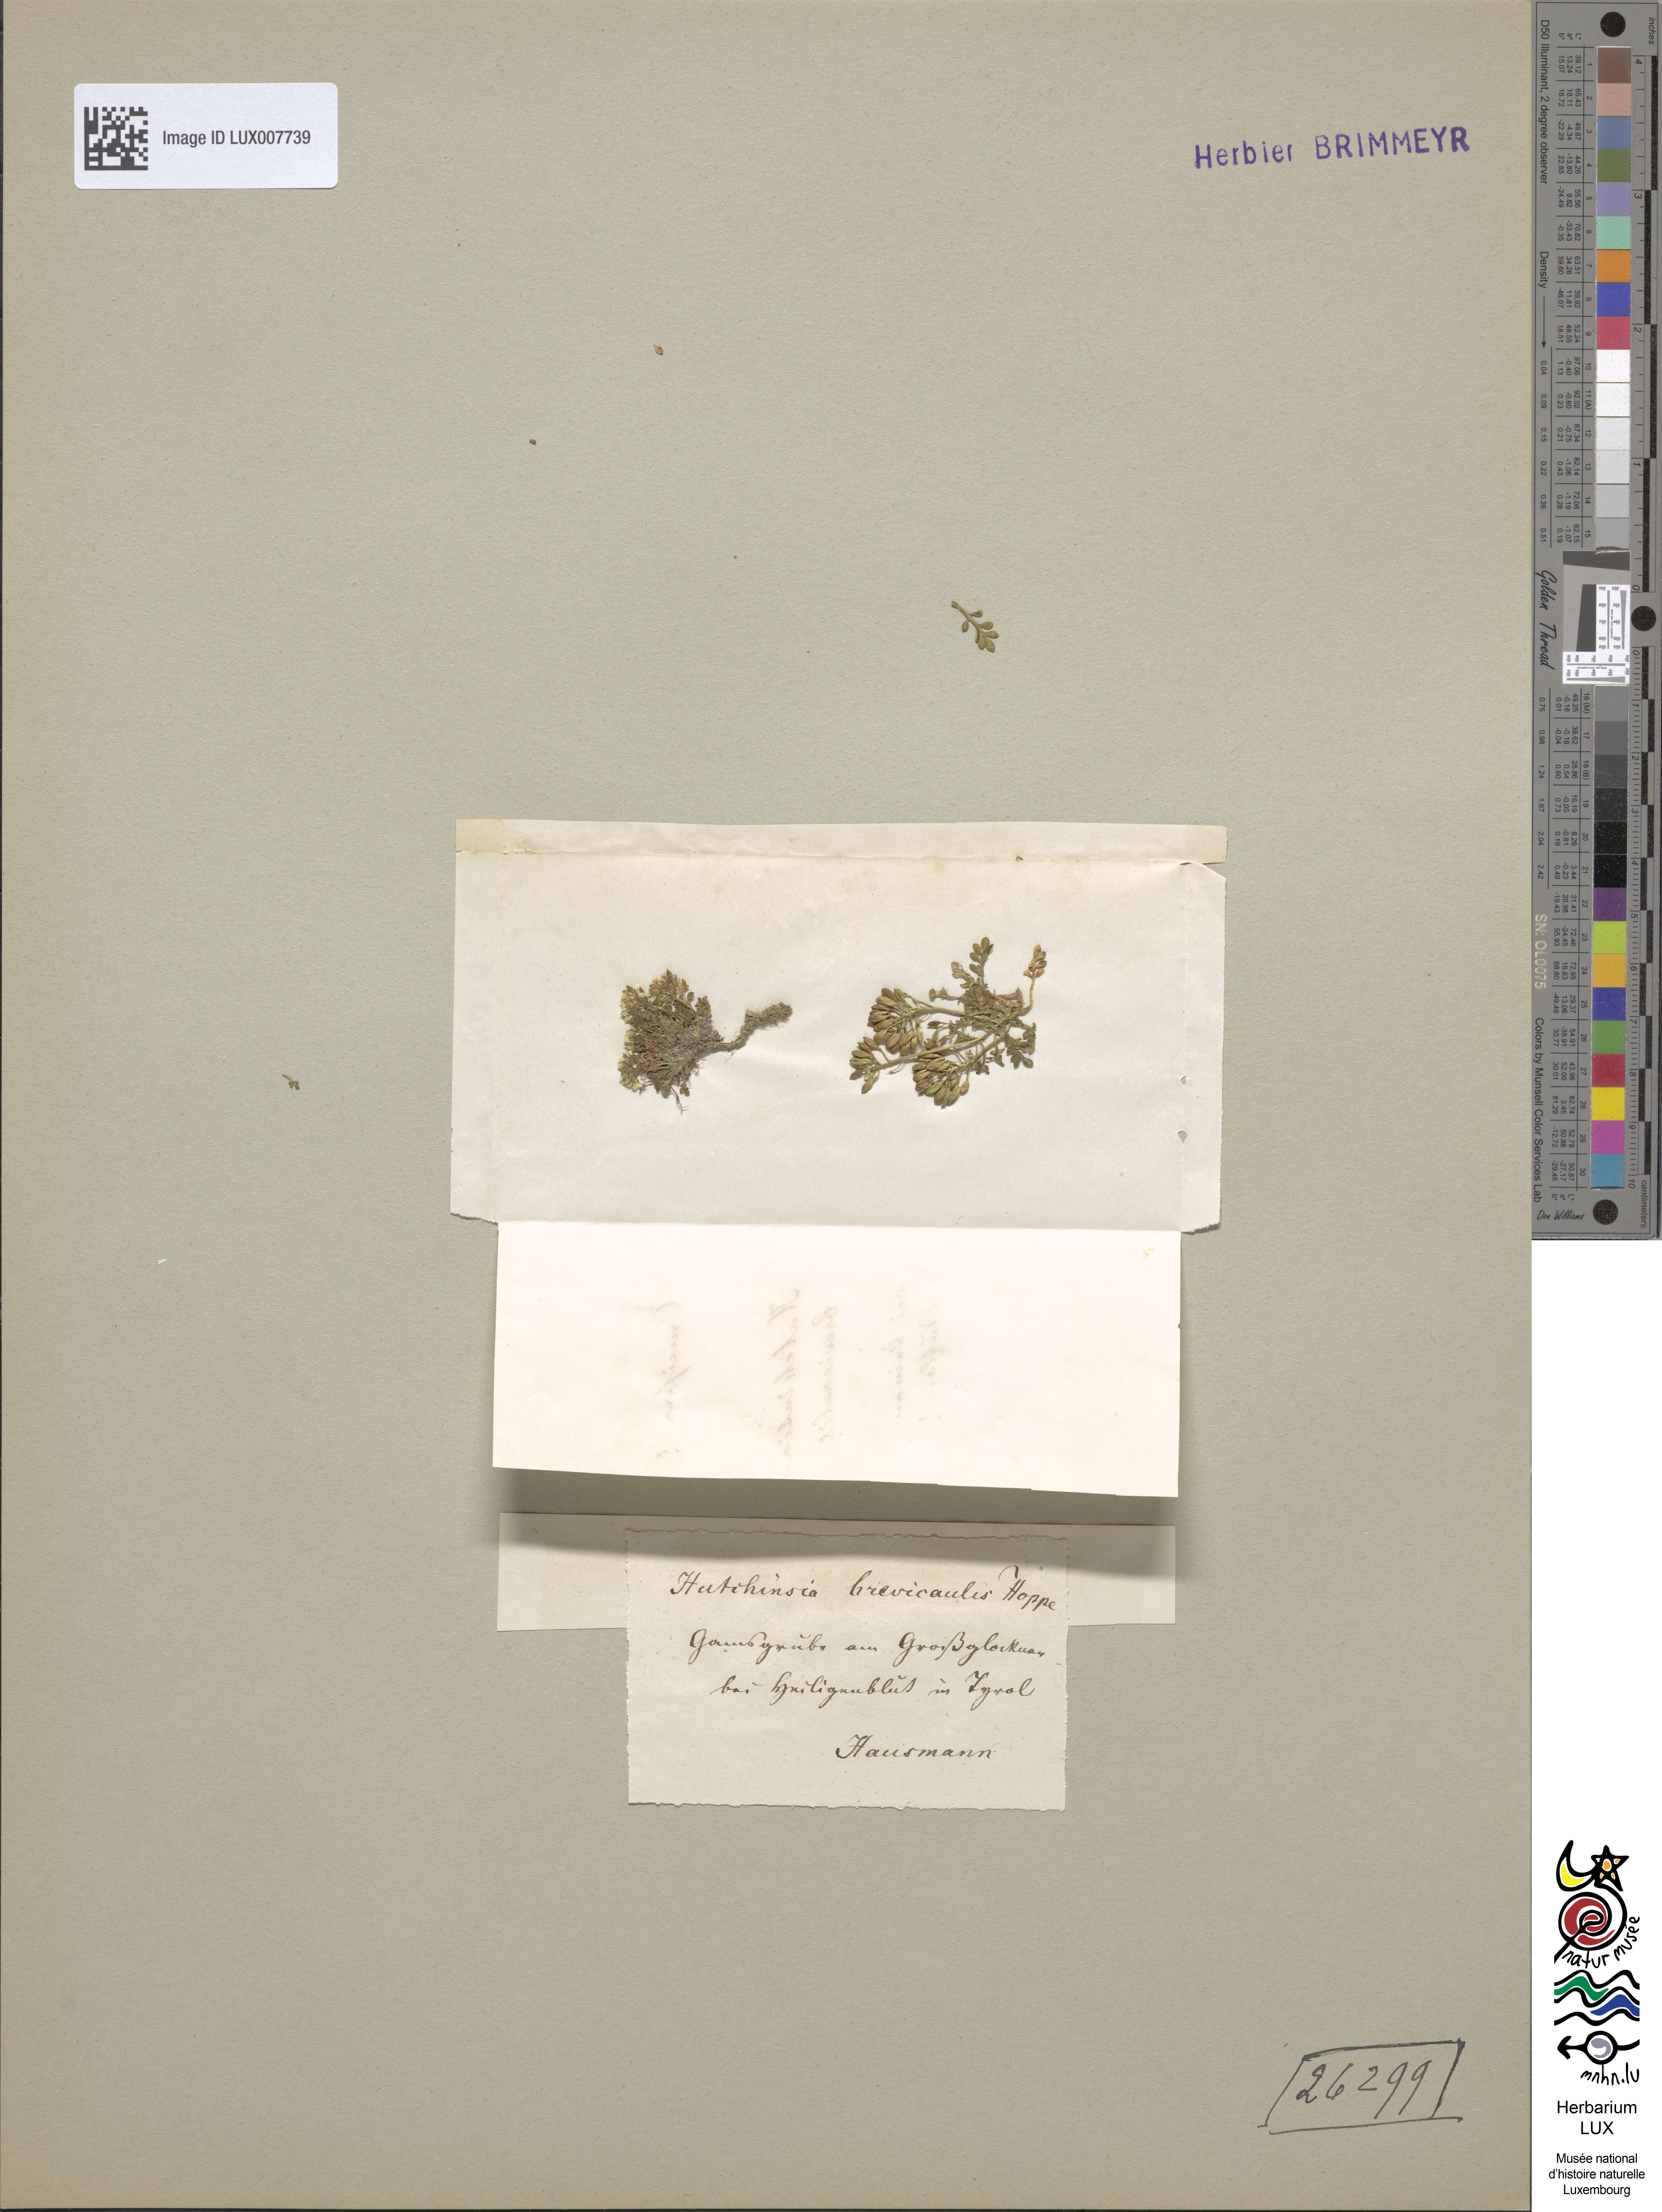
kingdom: Plantae
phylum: Tracheophyta
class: Magnoliopsida
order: Brassicales
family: Brassicaceae
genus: Hornungia
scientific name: Hornungia alpina
